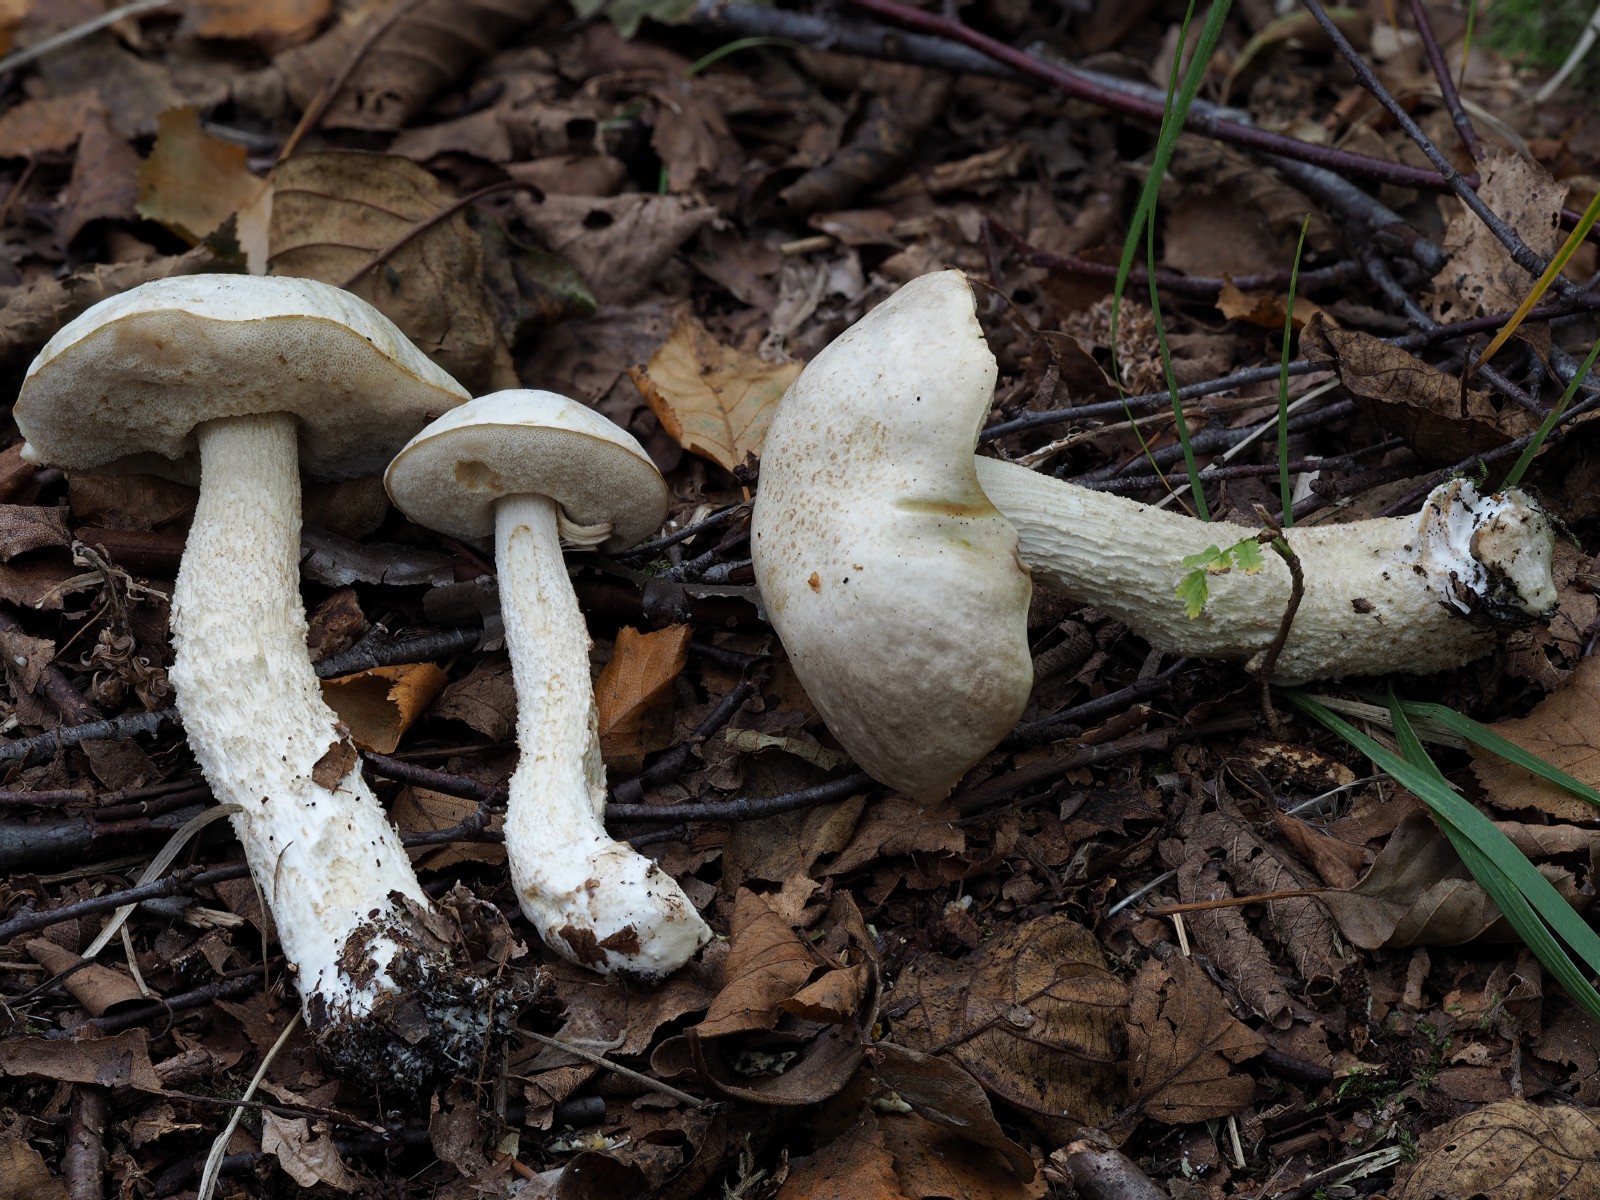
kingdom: Fungi
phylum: Basidiomycota
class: Agaricomycetes
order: Boletales
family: Boletaceae
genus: Leccinum
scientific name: Leccinum scabrum
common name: hvid skælrørhat
